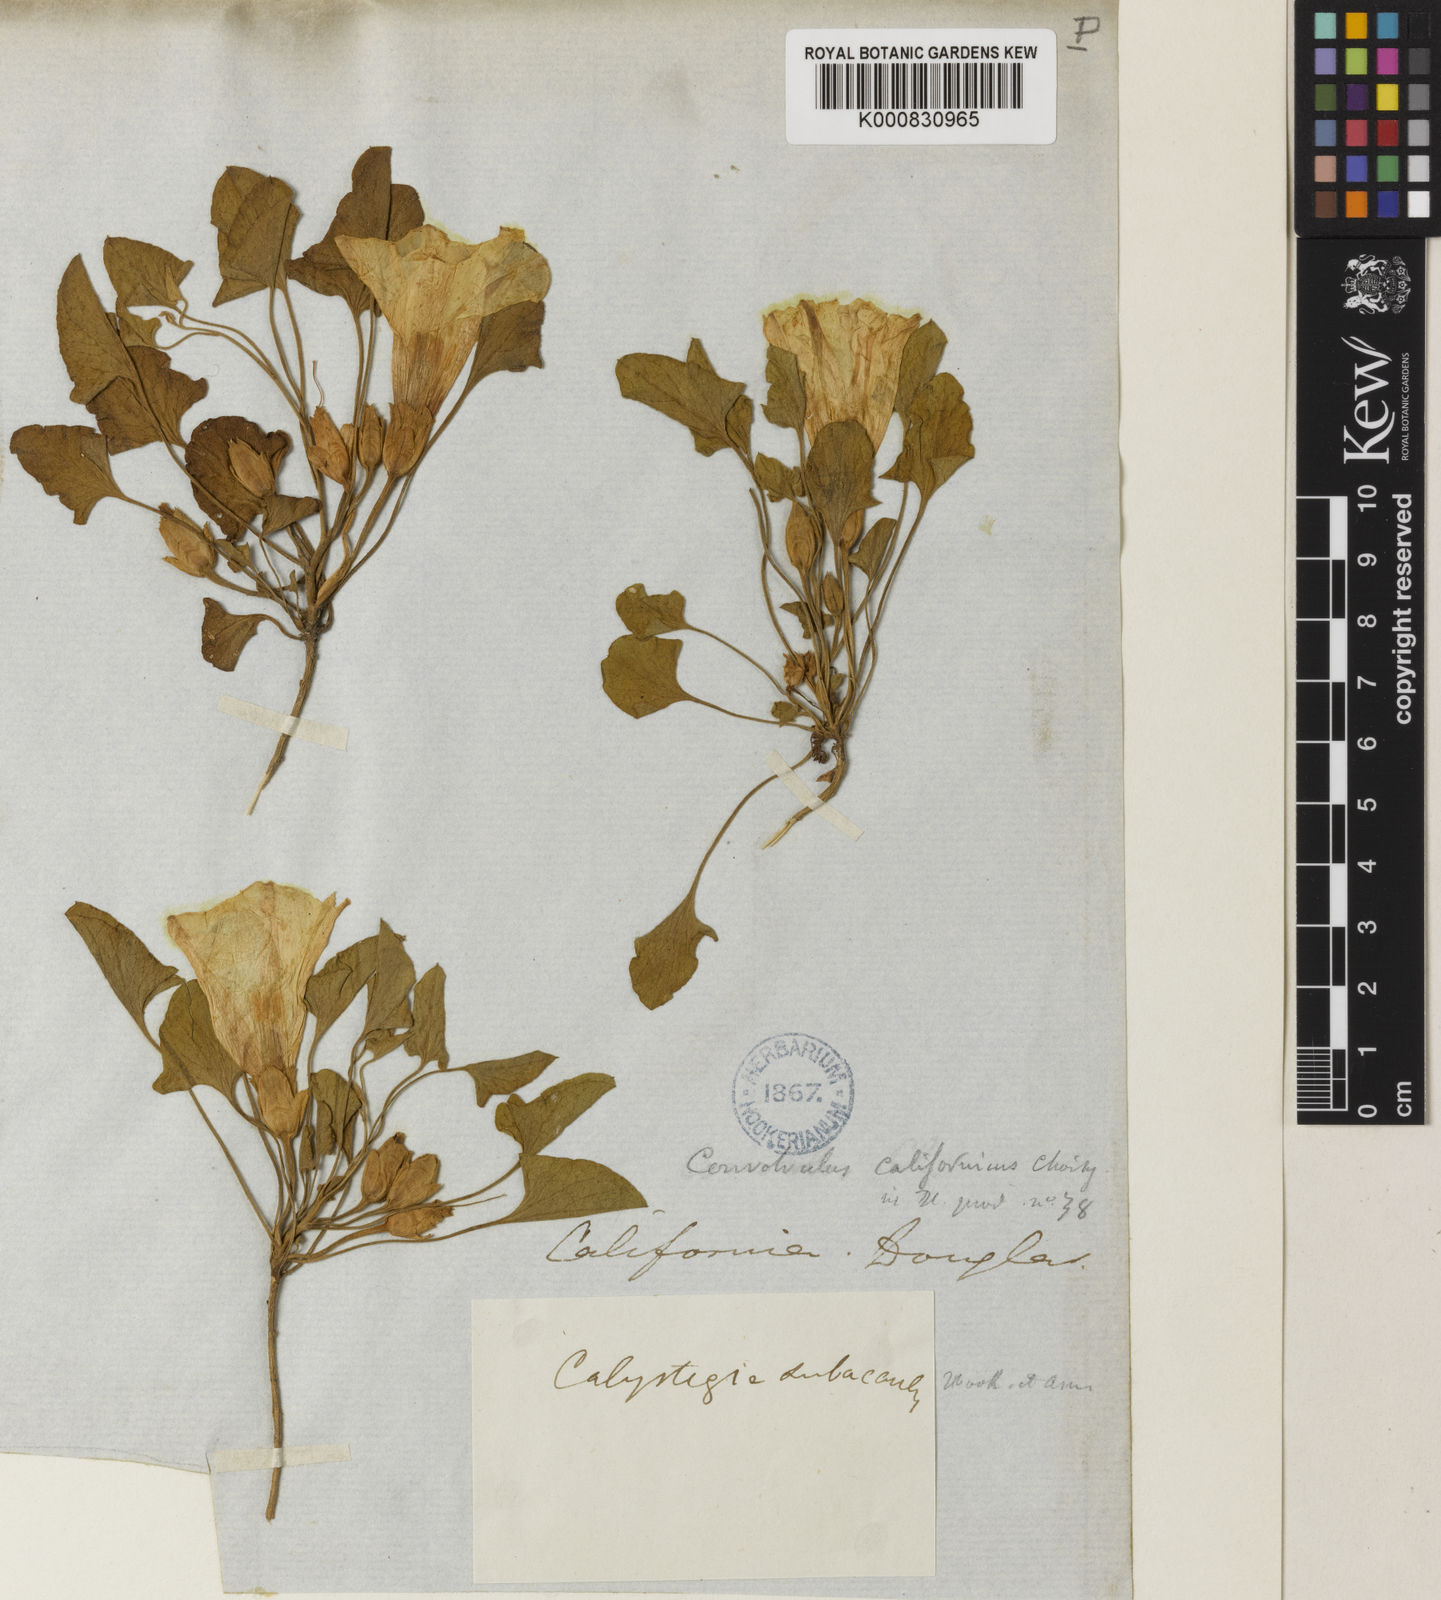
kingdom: Plantae
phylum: Tracheophyta
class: Magnoliopsida
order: Solanales
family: Convolvulaceae
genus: Calystegia
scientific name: Calystegia subacaulis
